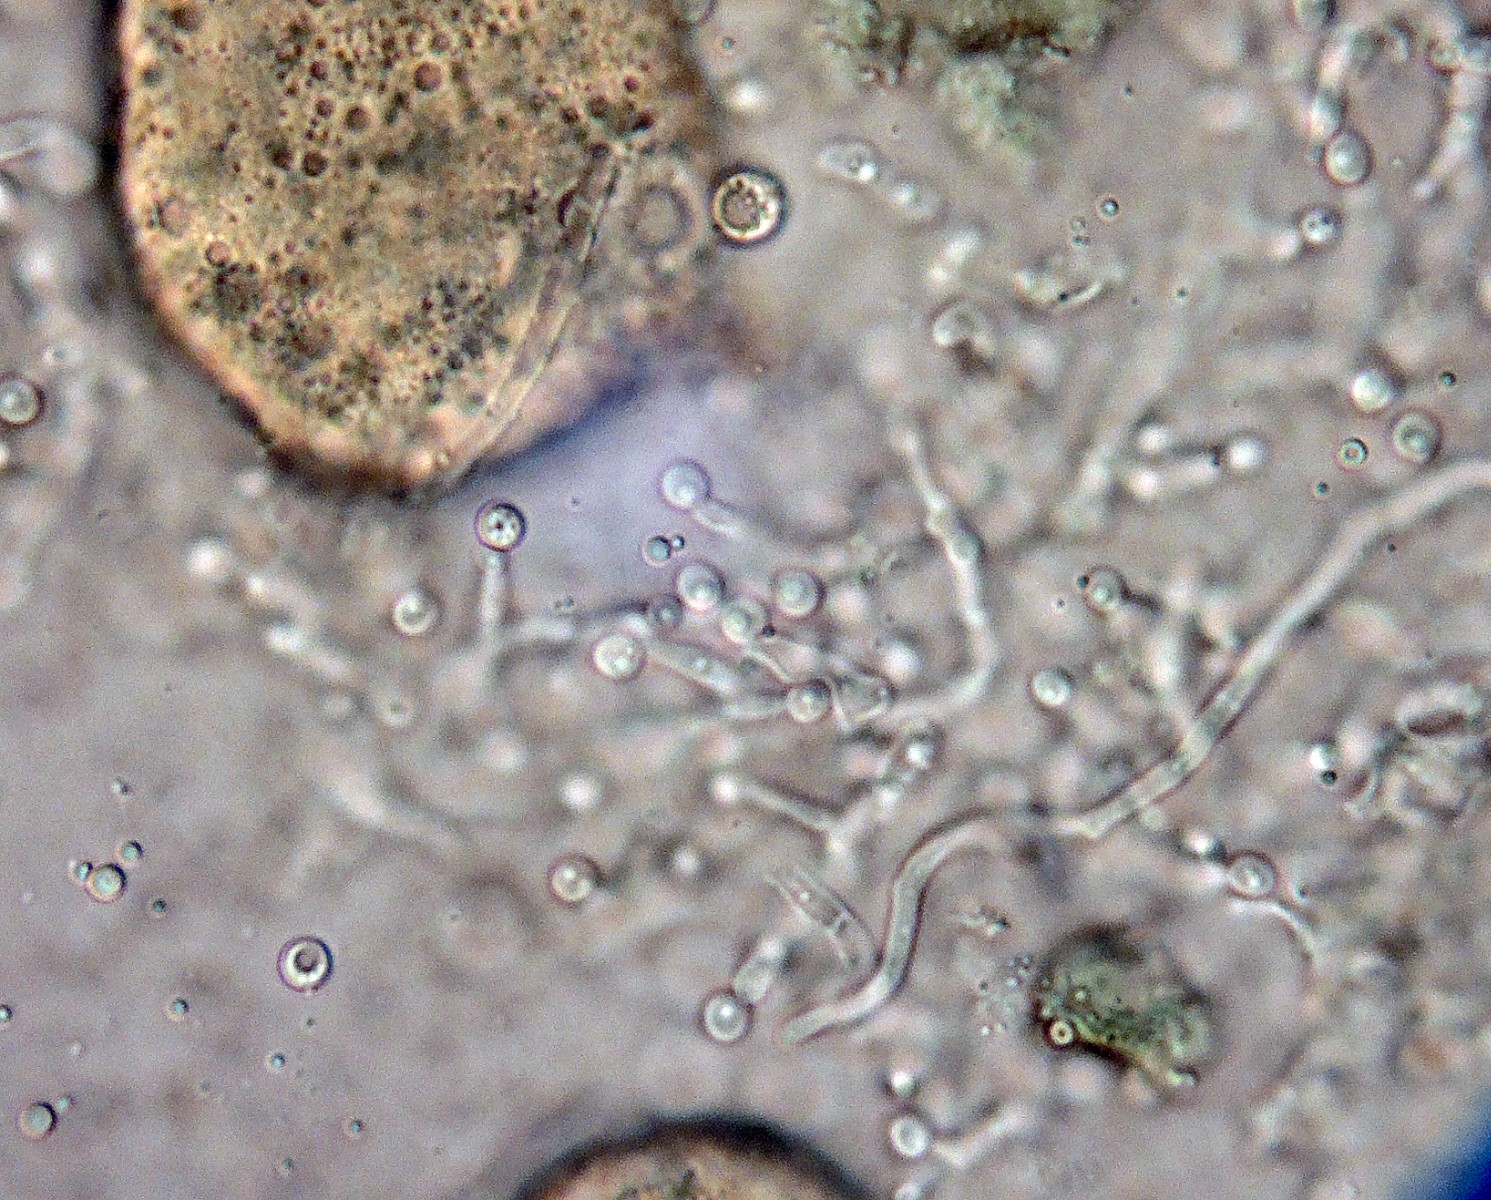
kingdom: Fungi
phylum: Ascomycota
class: Leotiomycetes
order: Helotiales
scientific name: Helotiales
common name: stilkskiveordenen
